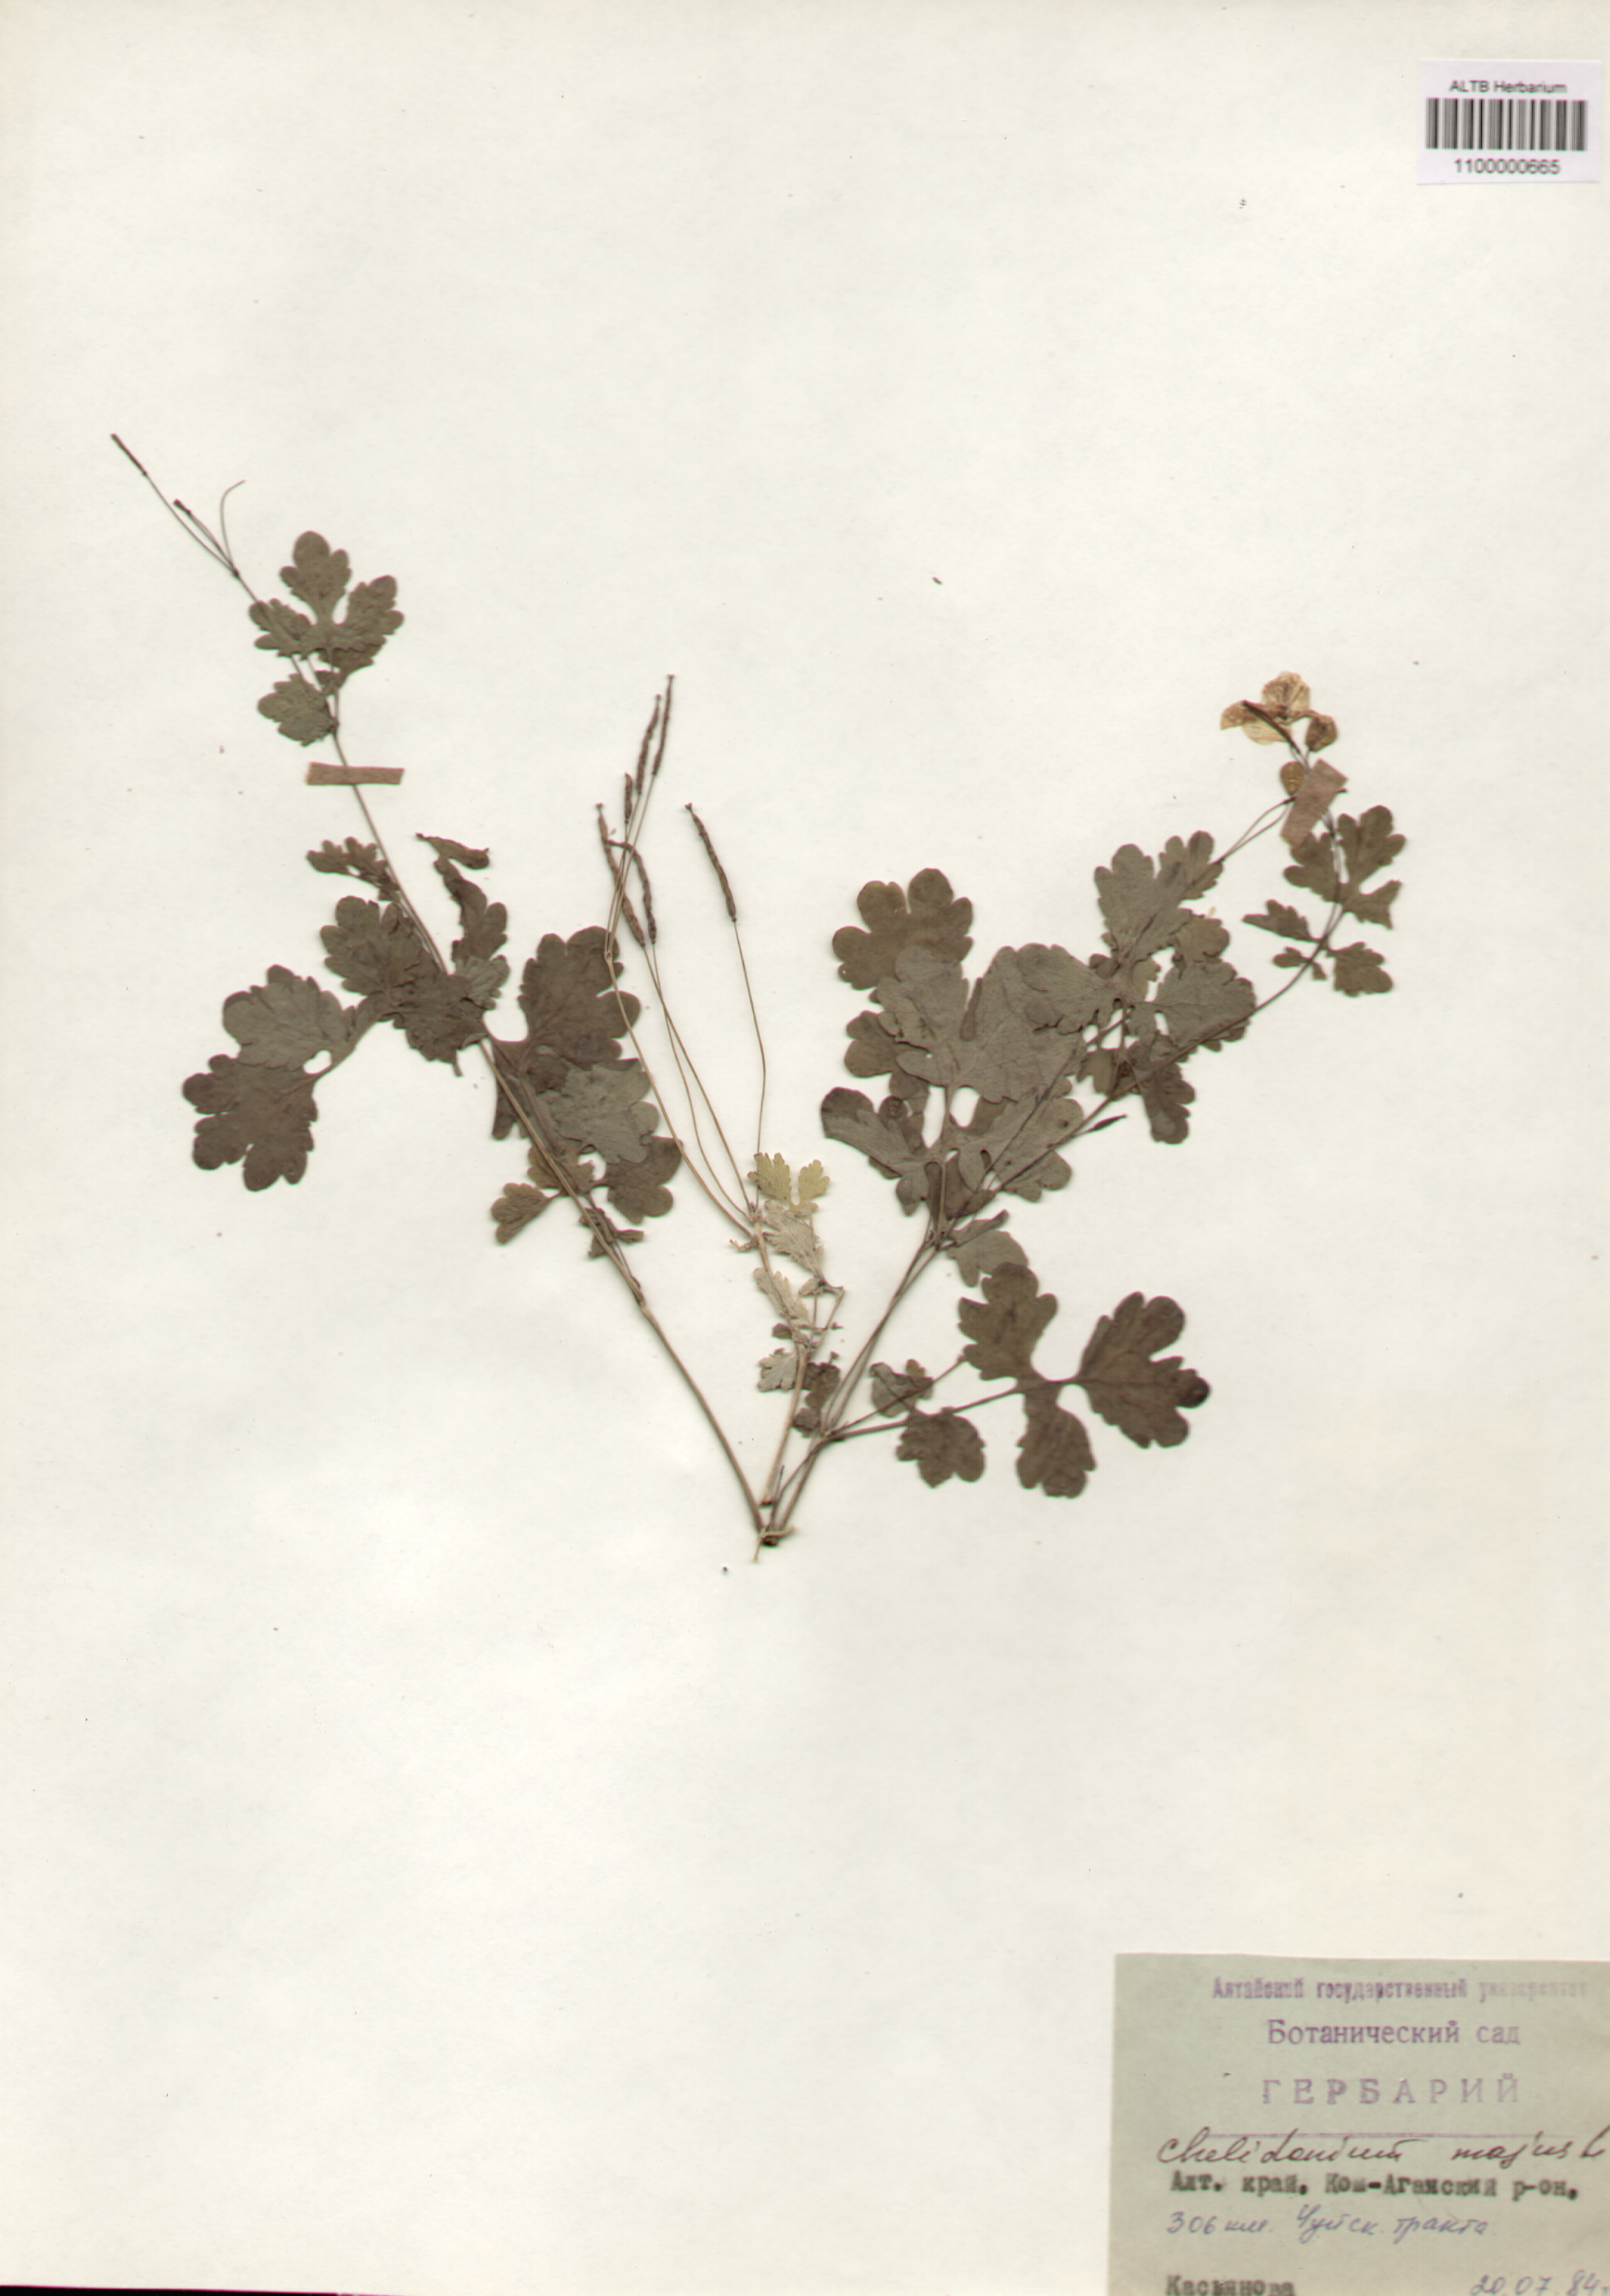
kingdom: Plantae
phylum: Tracheophyta
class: Magnoliopsida
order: Ranunculales
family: Papaveraceae
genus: Chelidonium
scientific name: Chelidonium majus
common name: Greater celandine
